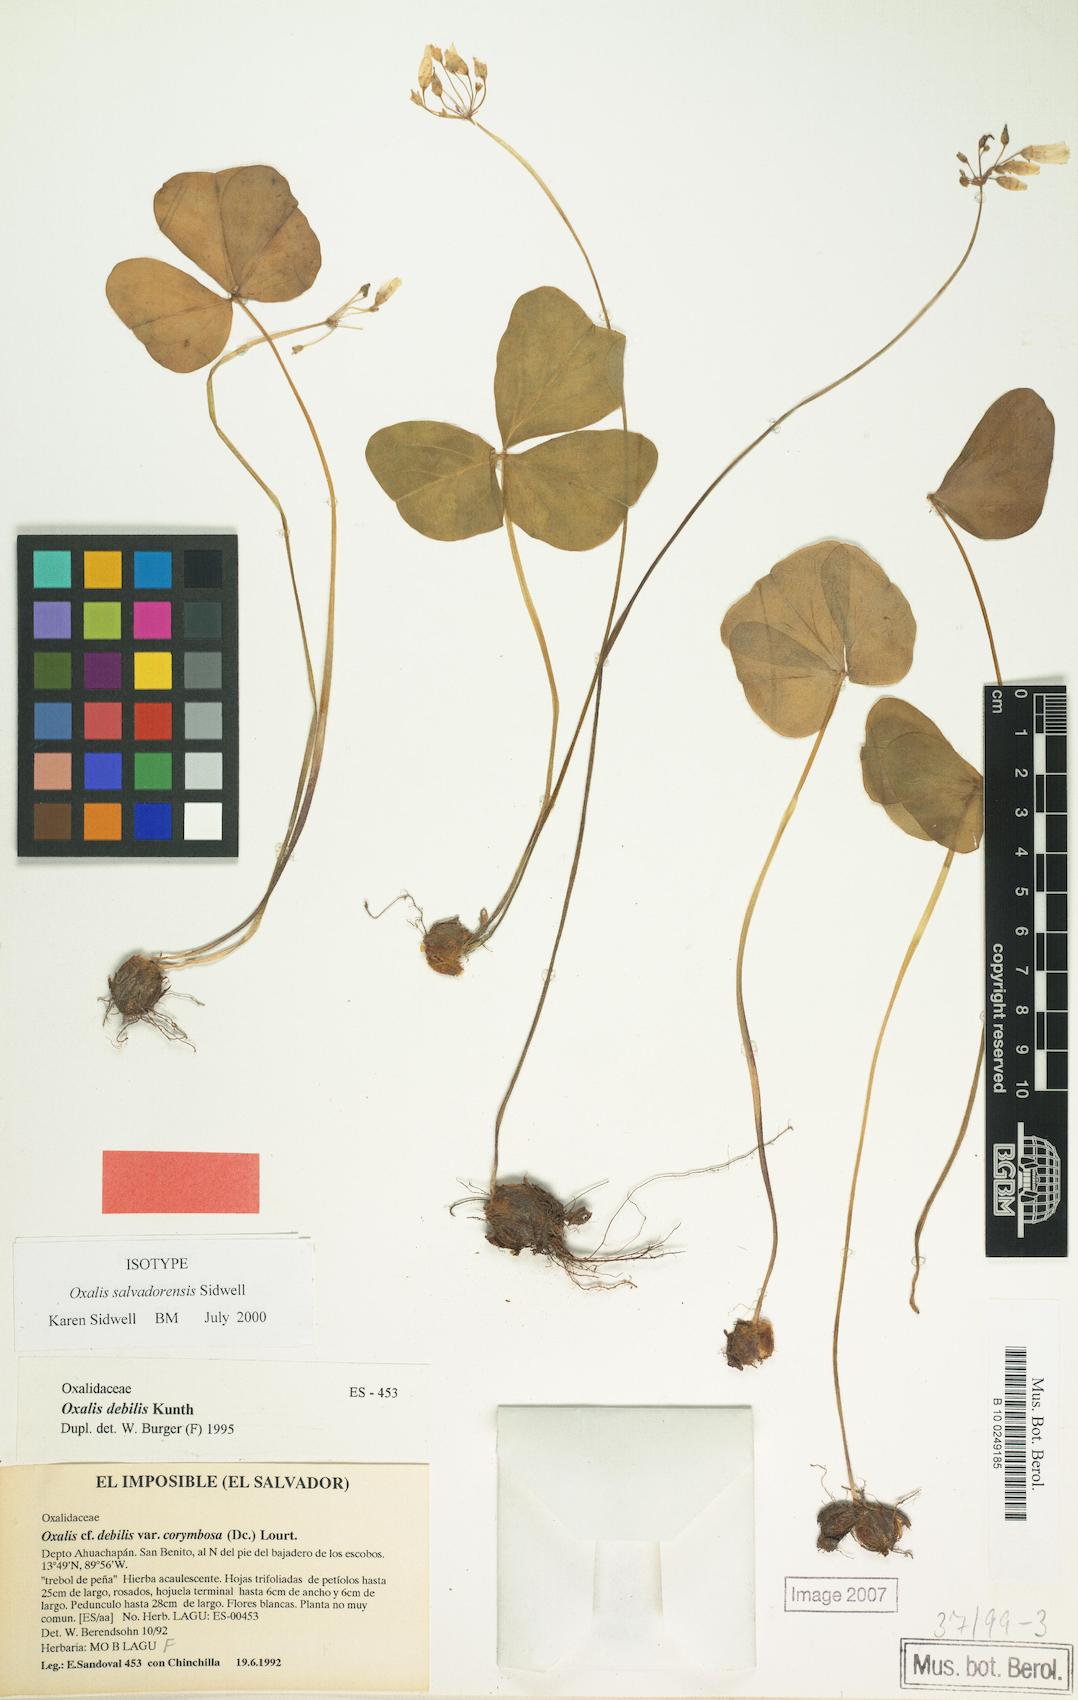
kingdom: Plantae
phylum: Tracheophyta
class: Magnoliopsida
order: Oxalidales
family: Oxalidaceae
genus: Oxalis
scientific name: Oxalis salvadorensis
